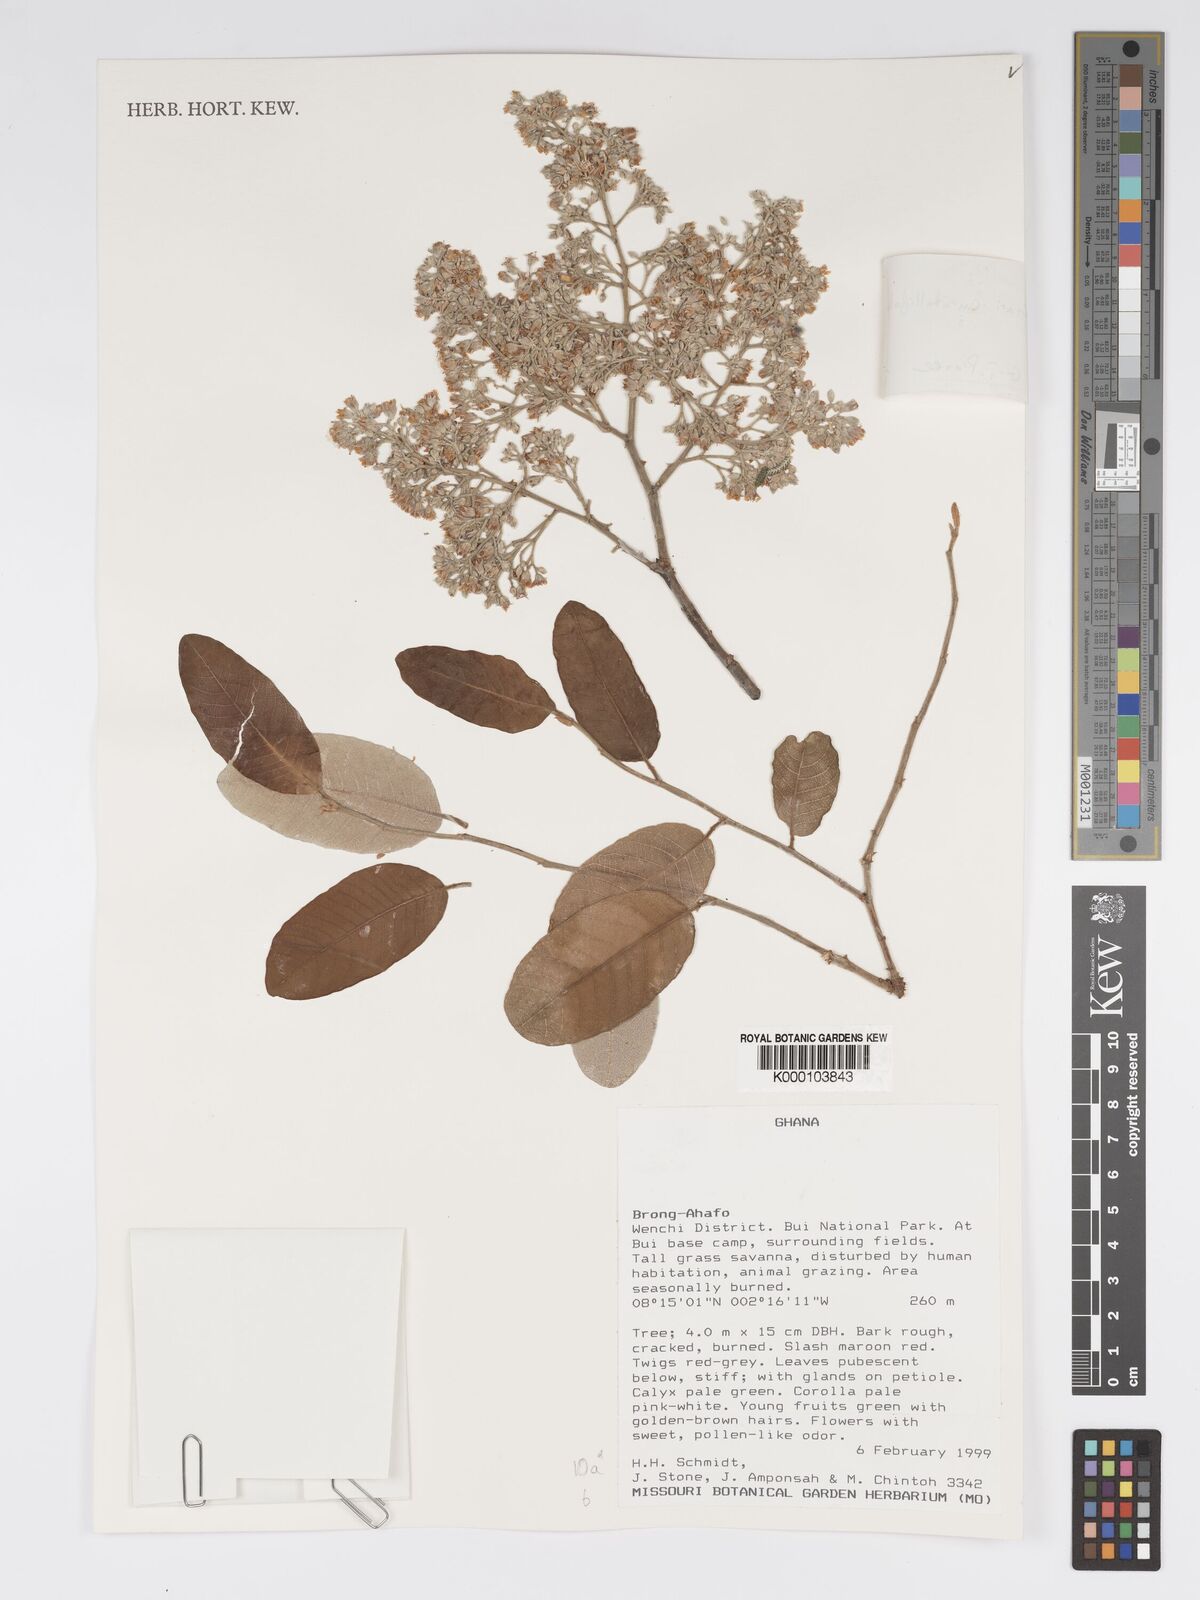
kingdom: Plantae
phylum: Tracheophyta
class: Magnoliopsida
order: Malpighiales
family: Chrysobalanaceae
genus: Parinari
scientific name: Parinari curatellifolia
